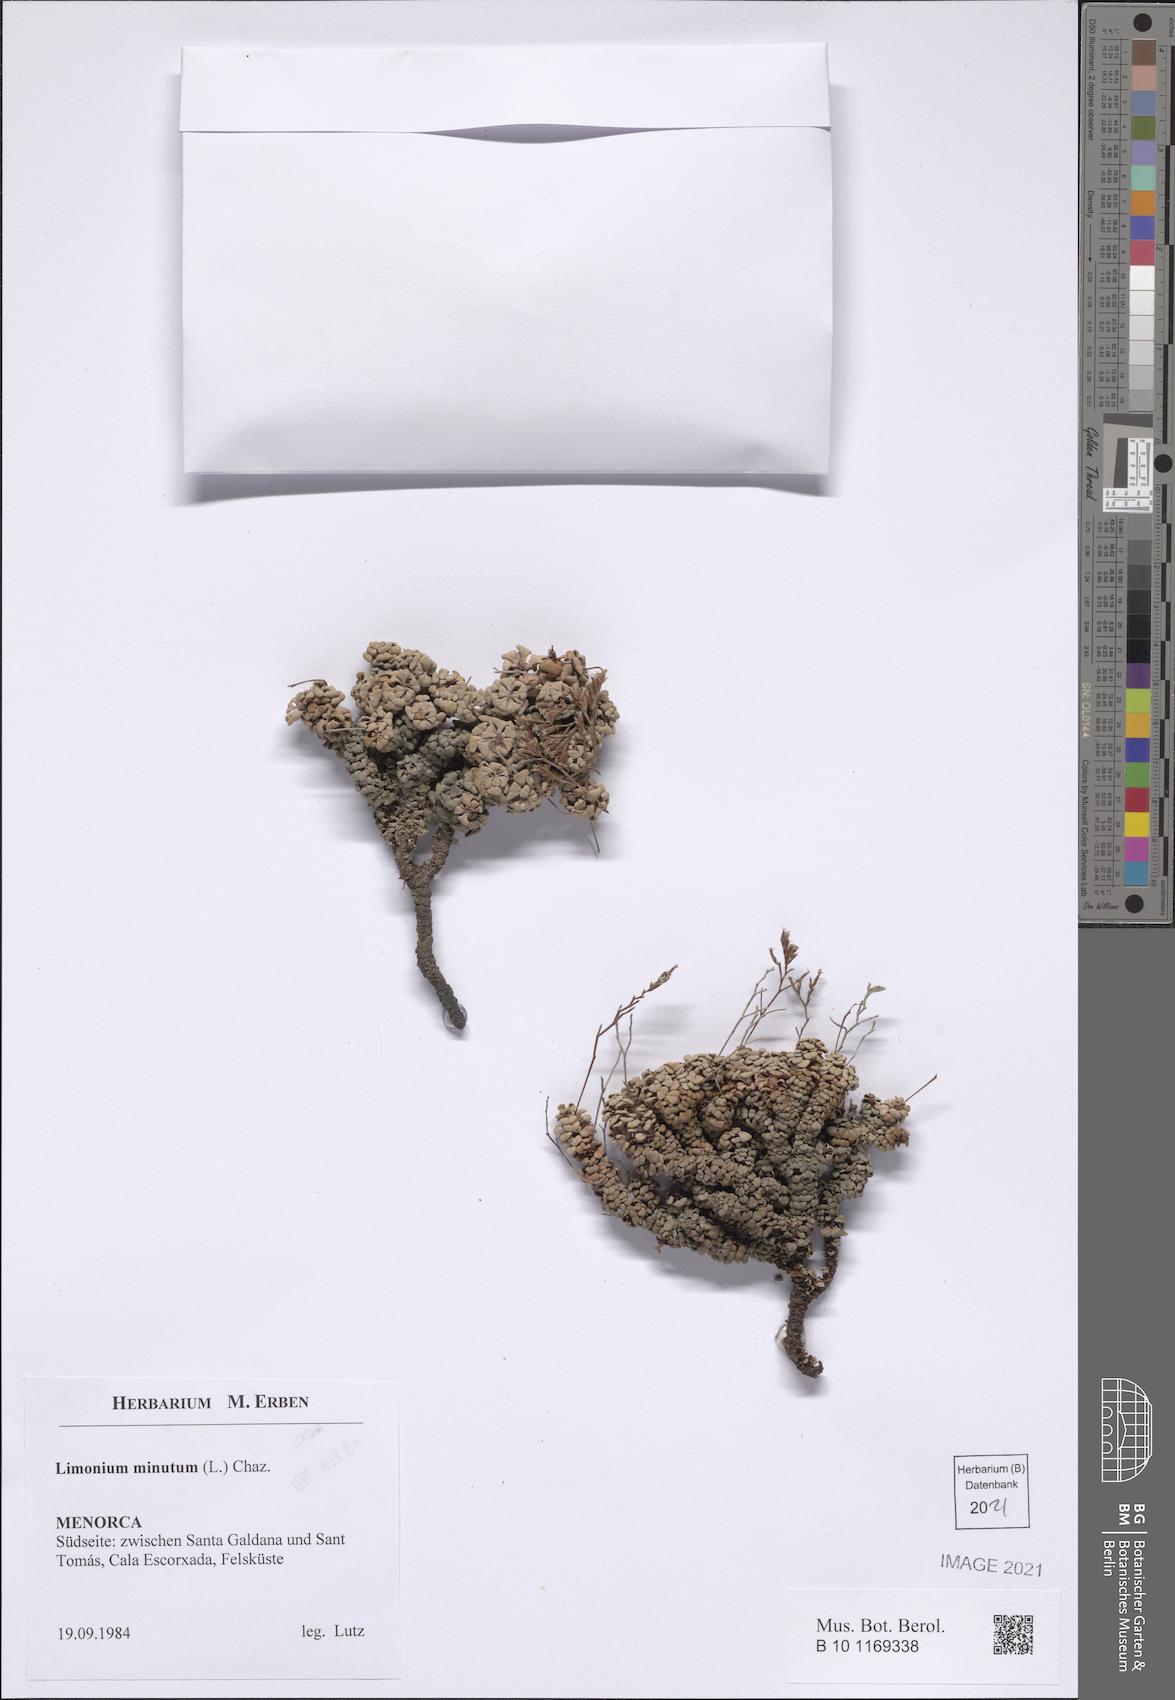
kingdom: Plantae
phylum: Tracheophyta
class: Magnoliopsida
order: Caryophyllales
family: Plumbaginaceae
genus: Limonium
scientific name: Limonium minutum
